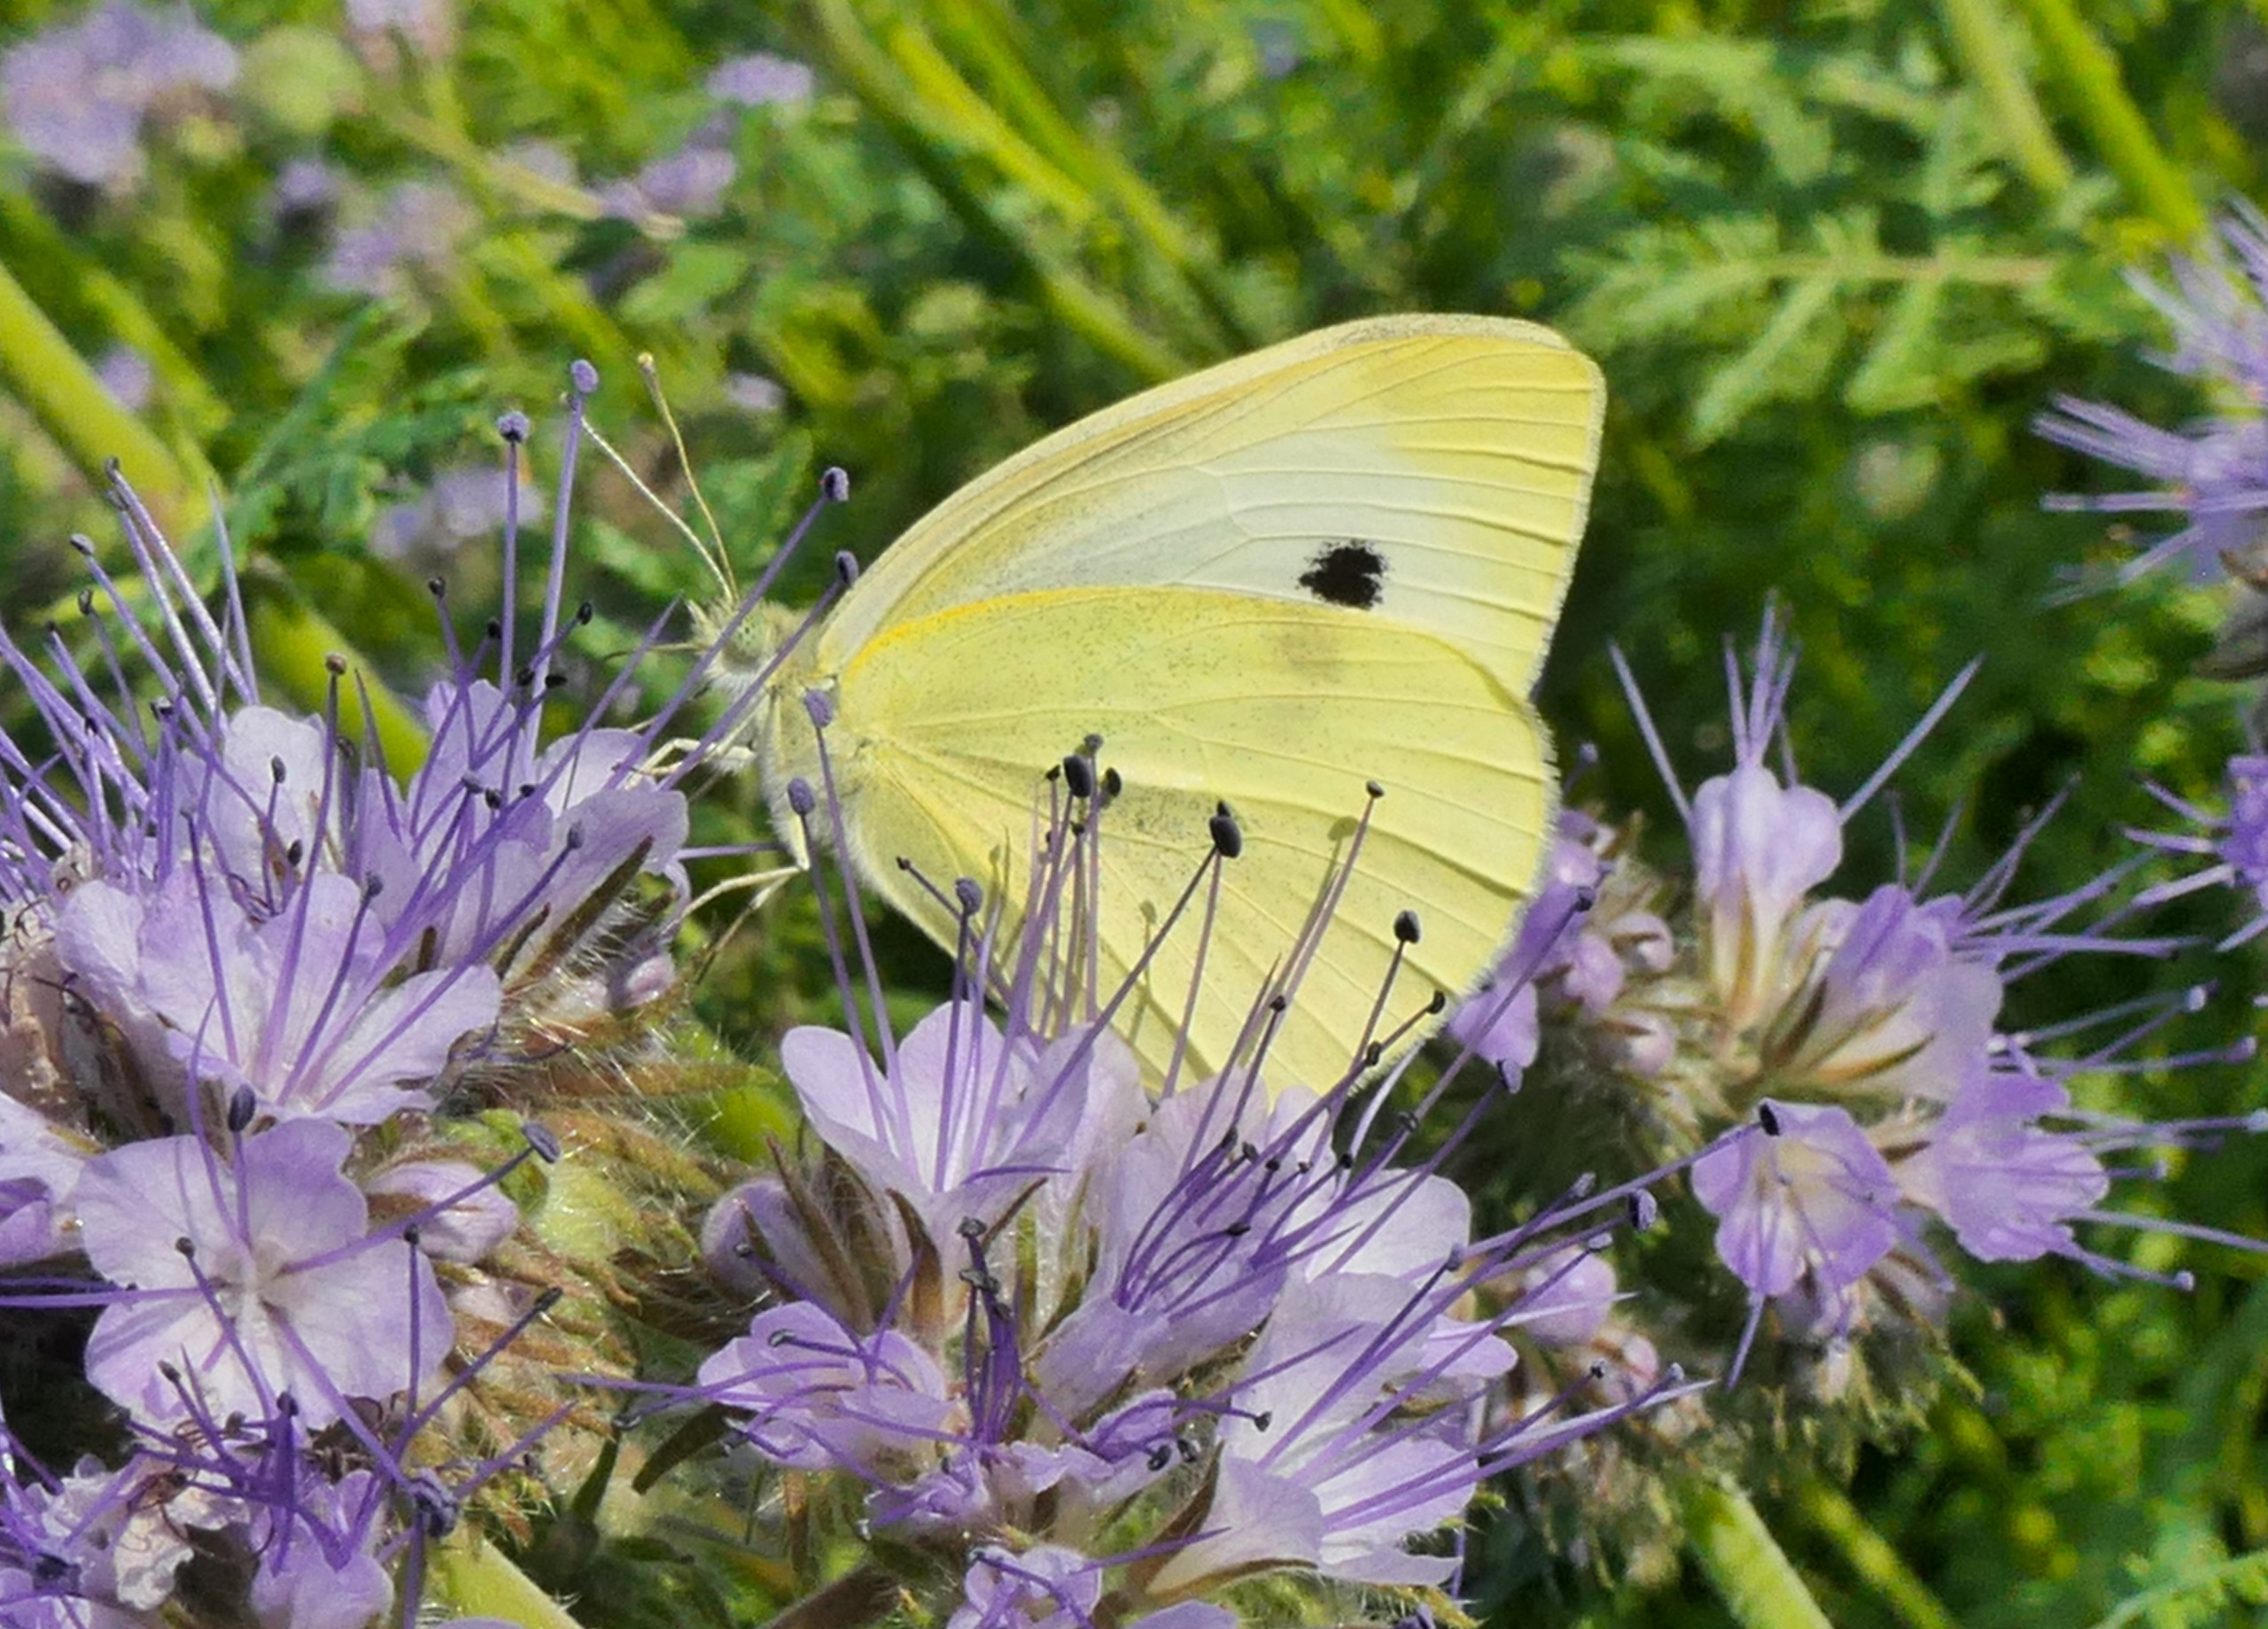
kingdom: Animalia
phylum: Arthropoda
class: Insecta
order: Lepidoptera
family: Pieridae
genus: Pieris
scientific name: Pieris brassicae
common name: Stor kålsommerfugl
